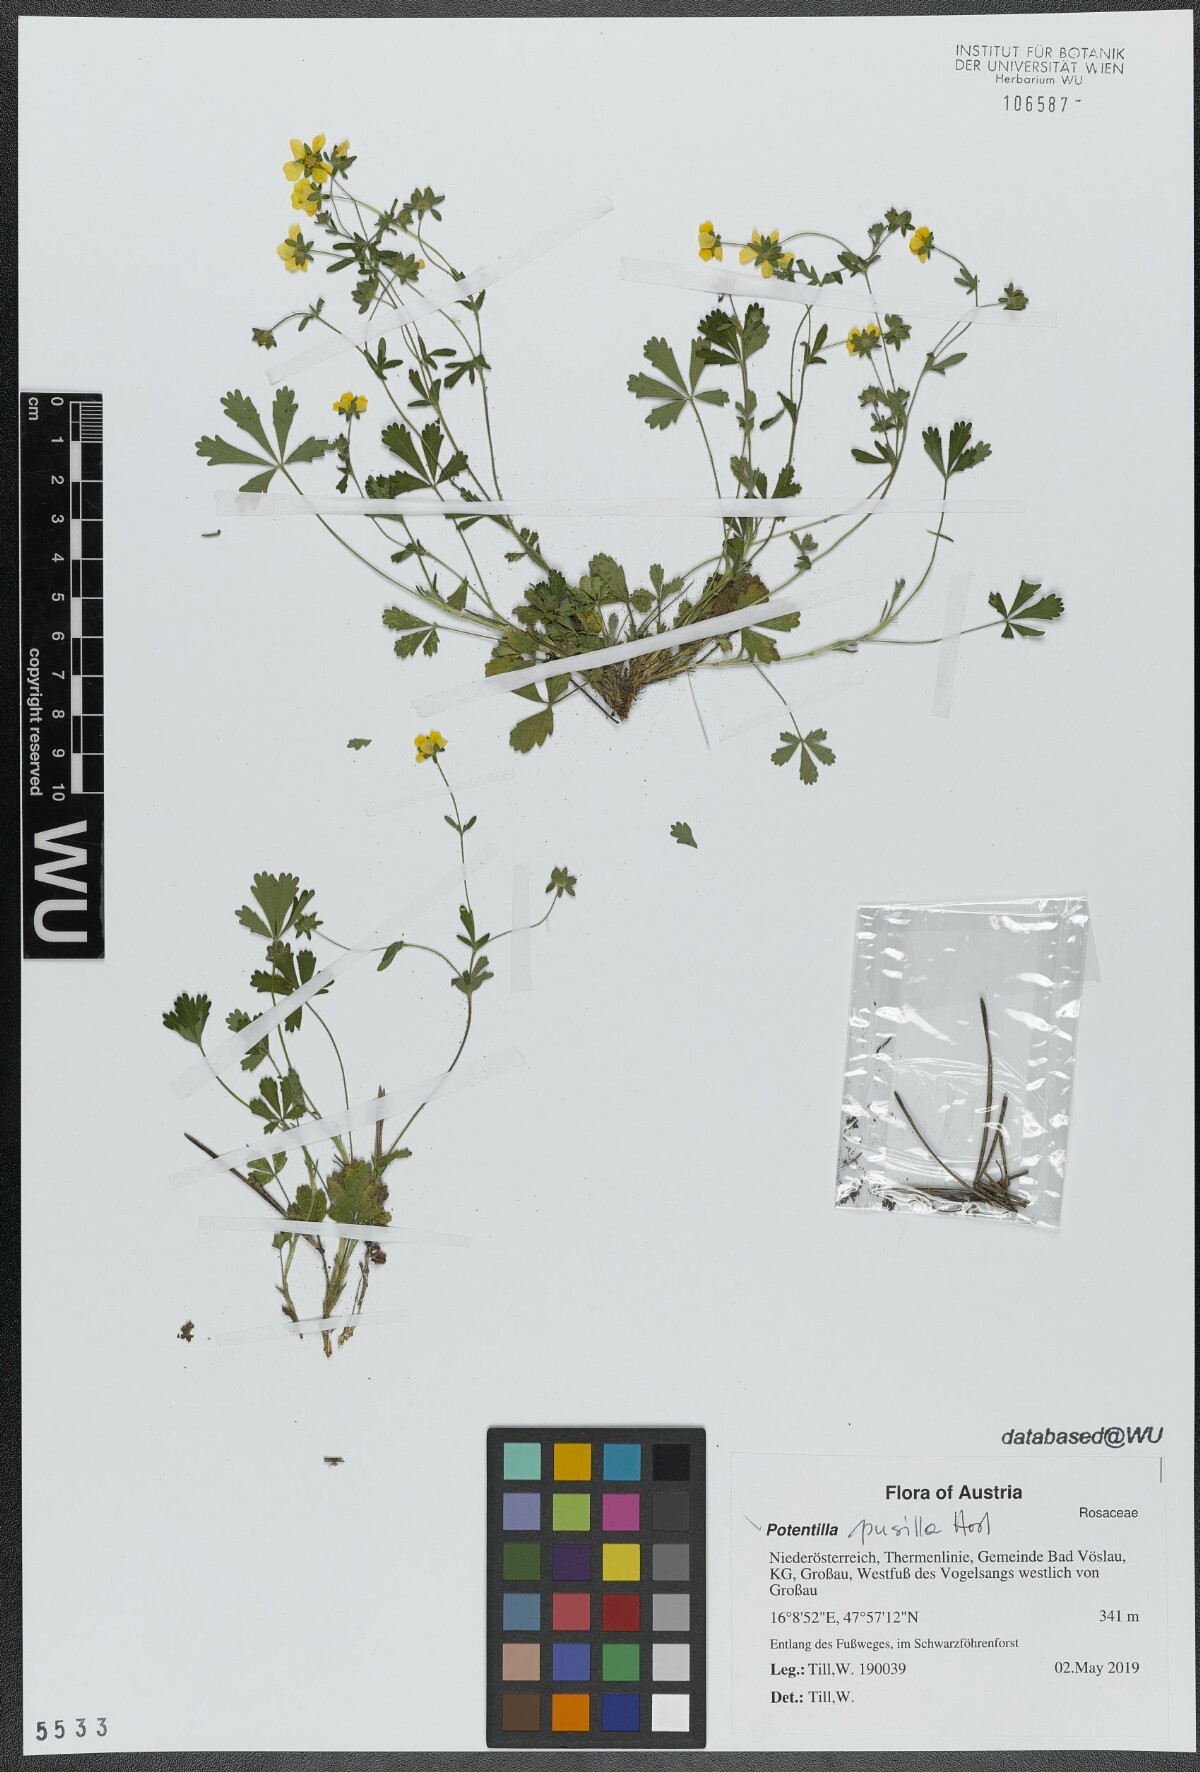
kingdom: Plantae
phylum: Tracheophyta
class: Magnoliopsida
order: Rosales
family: Rosaceae
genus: Potentilla
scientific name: Potentilla pusilla
